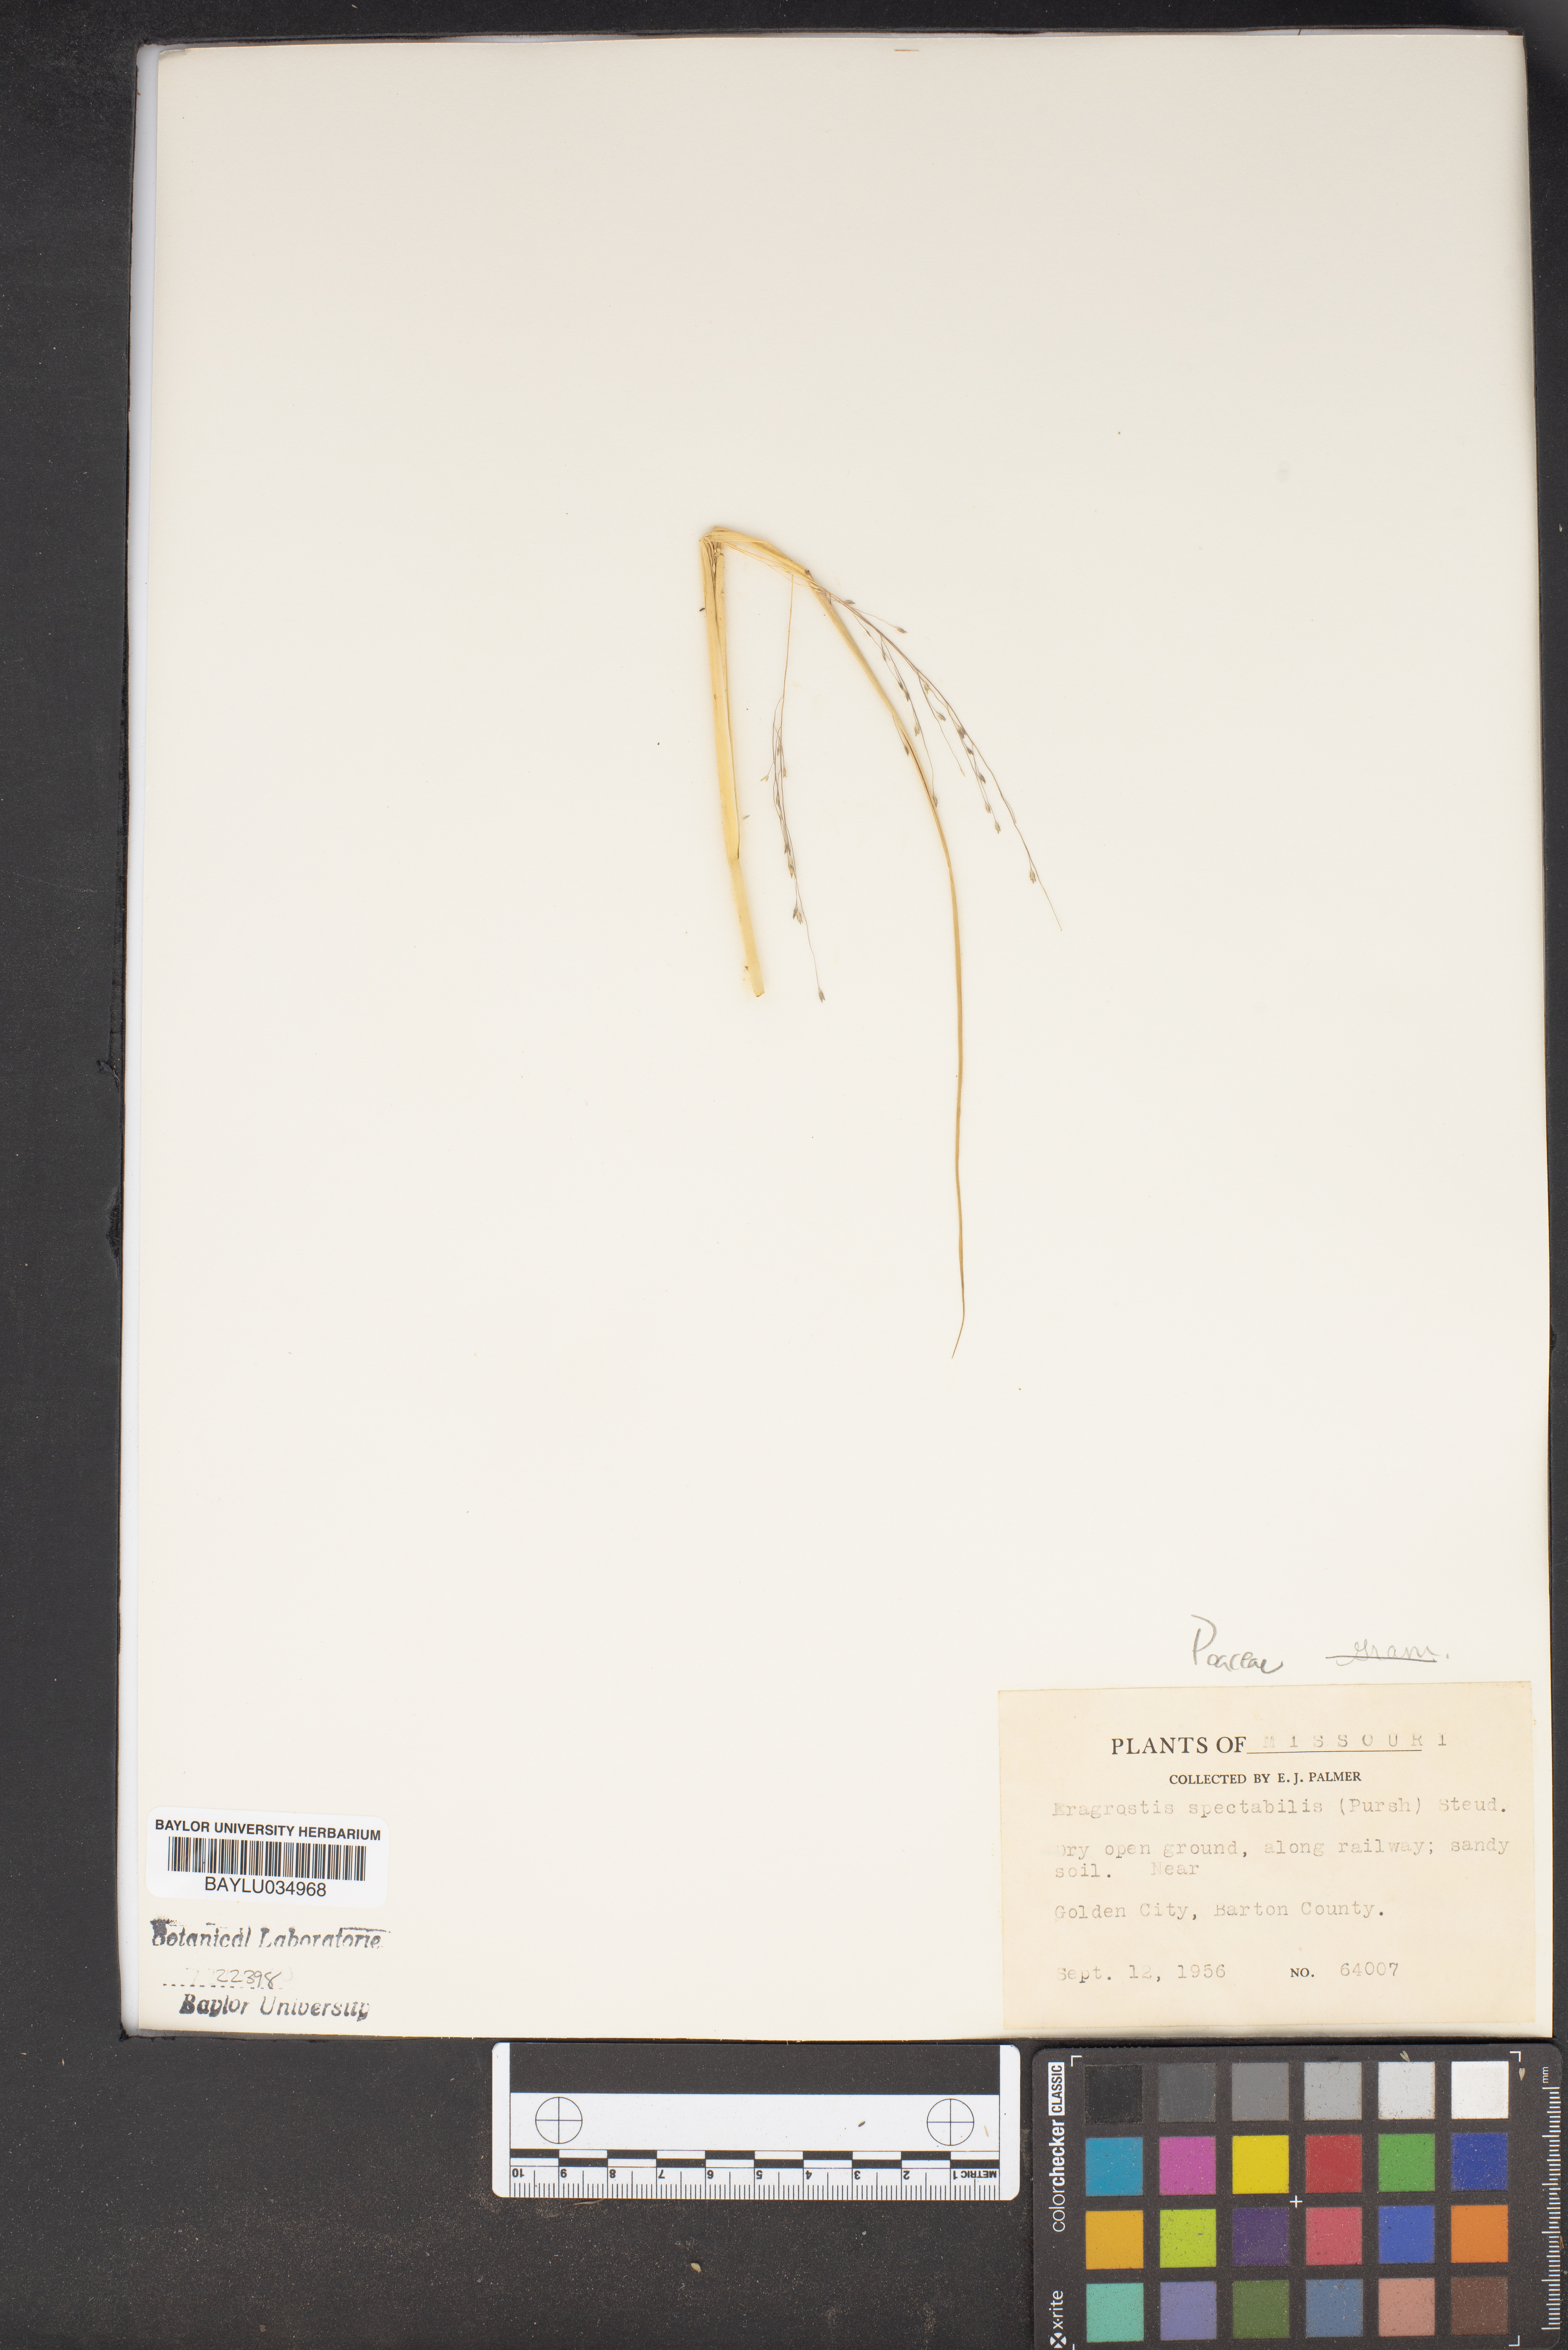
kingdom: Plantae
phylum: Tracheophyta
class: Liliopsida
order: Poales
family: Poaceae
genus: Eragrostis
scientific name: Eragrostis spectabilis
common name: Petticoat-climber
